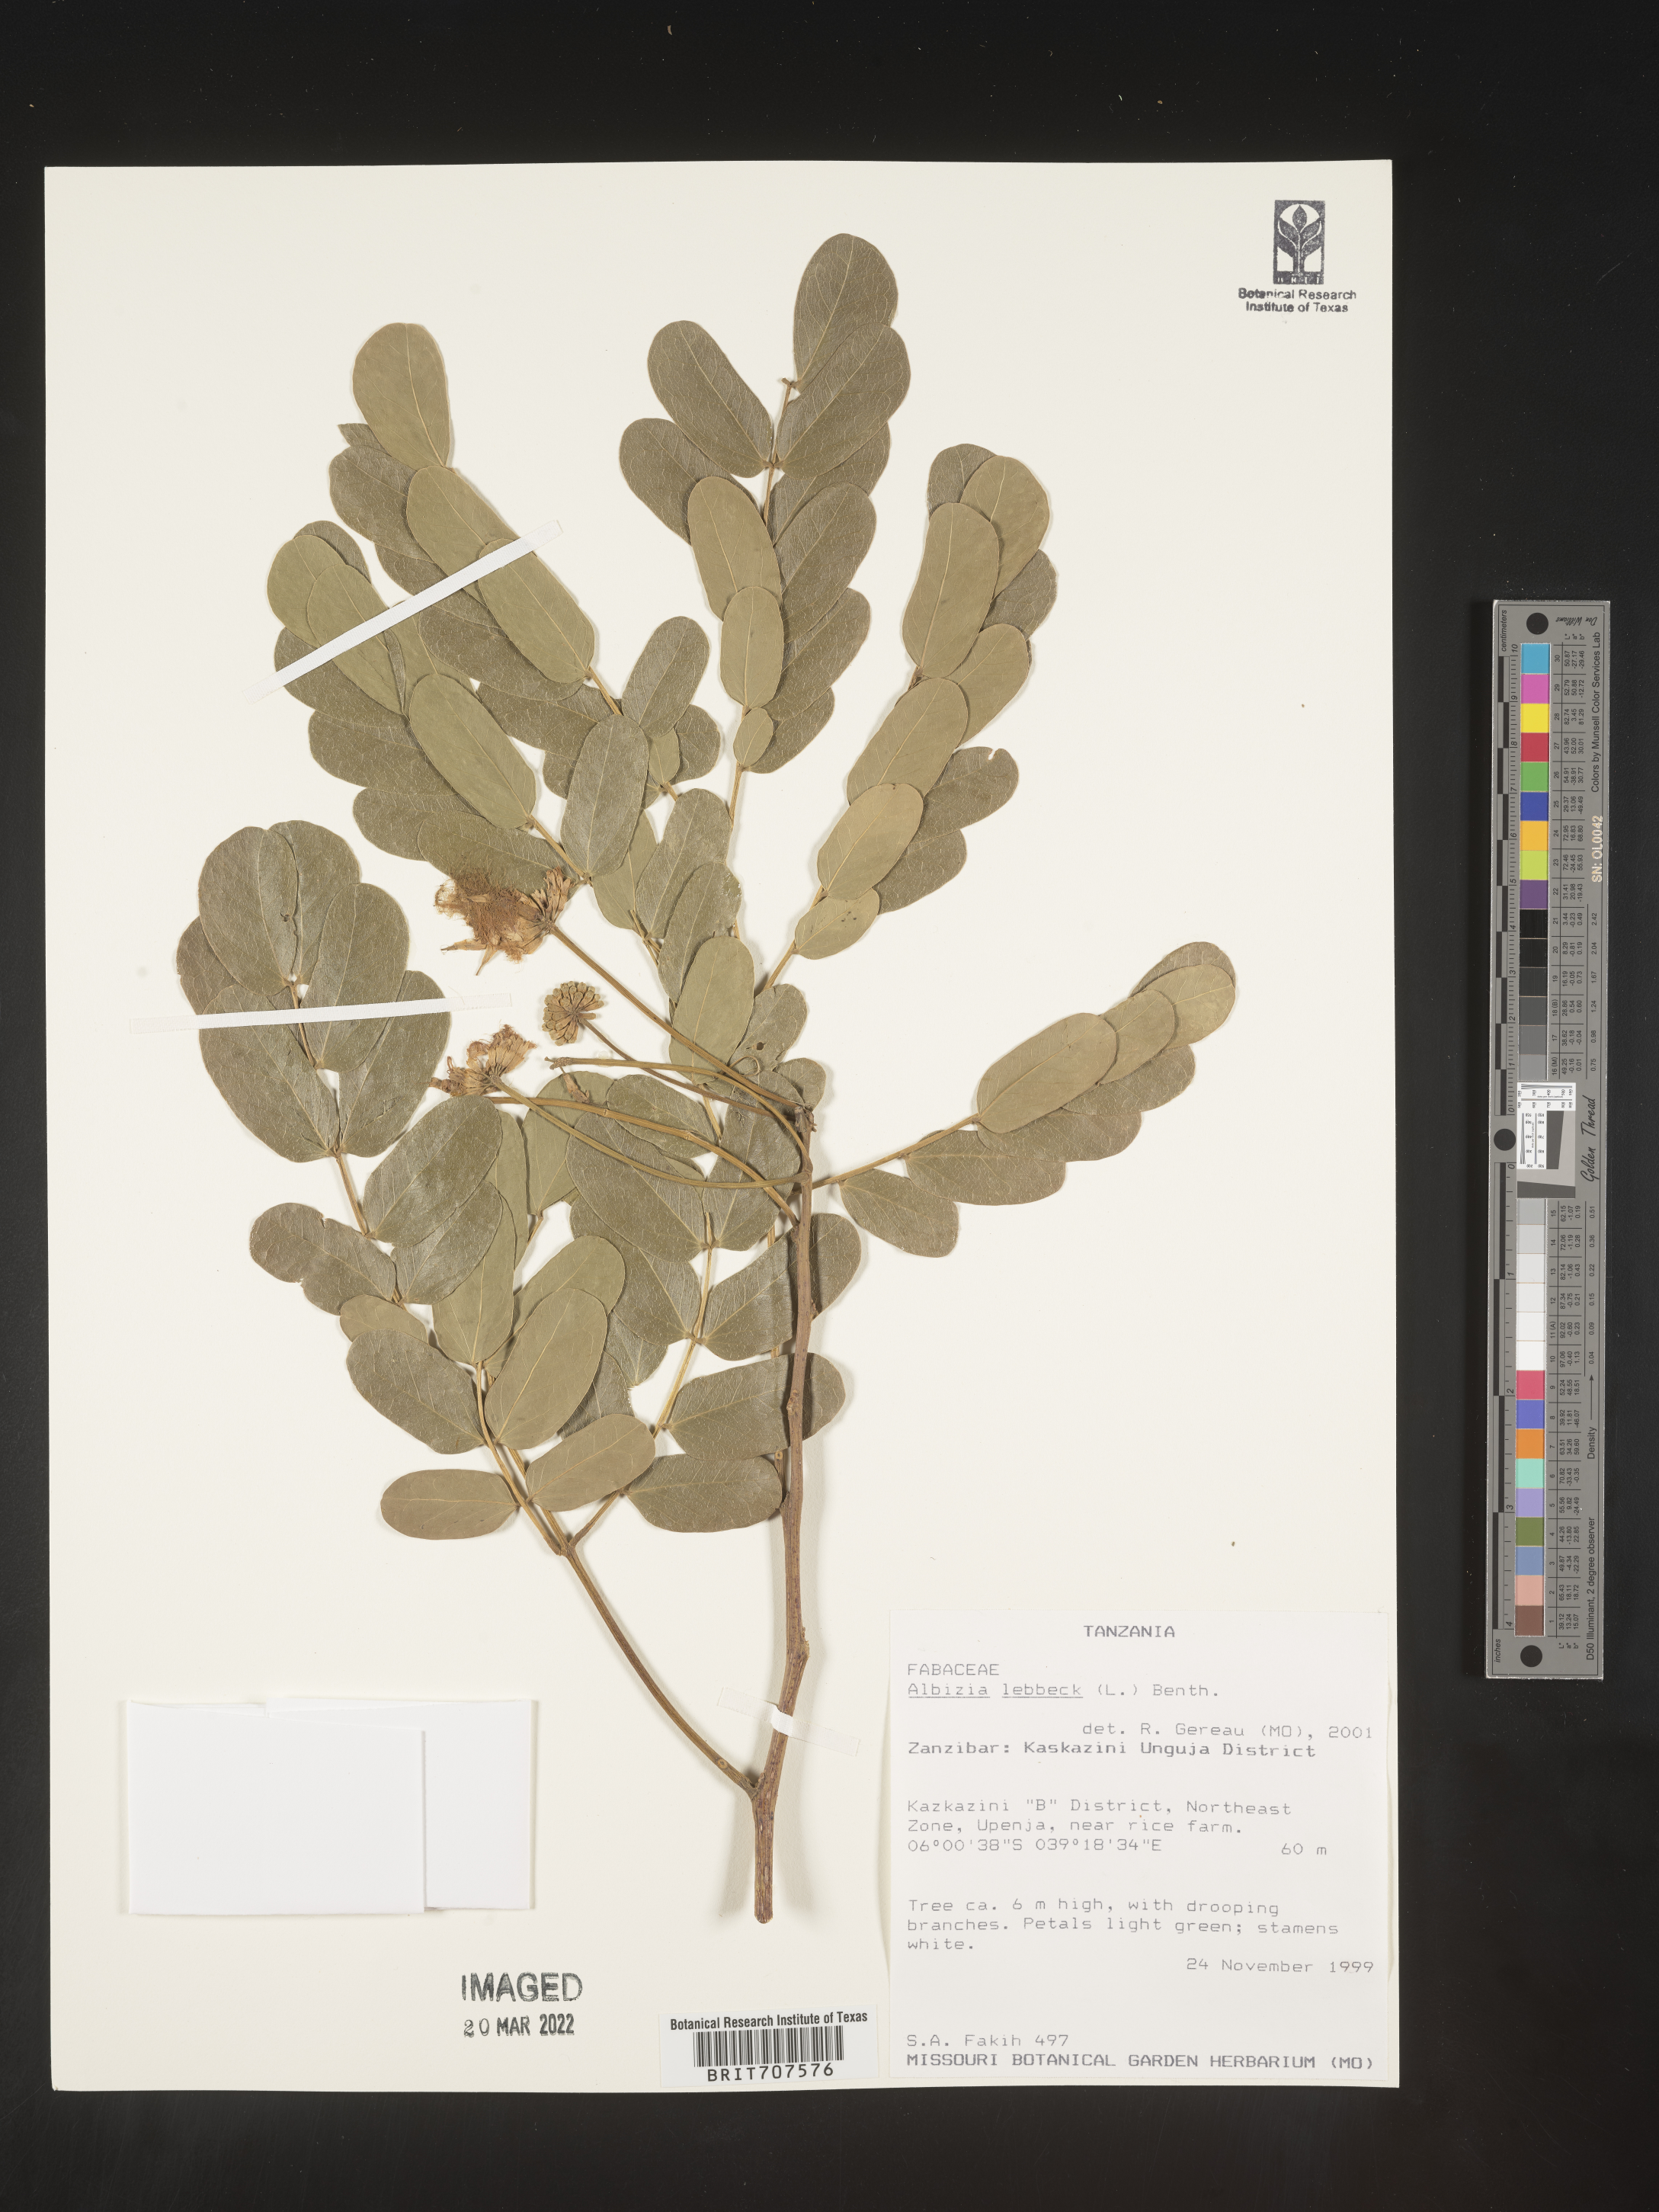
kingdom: Plantae
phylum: Tracheophyta
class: Magnoliopsida
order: Fabales
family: Fabaceae
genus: Albizia
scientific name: Albizia
